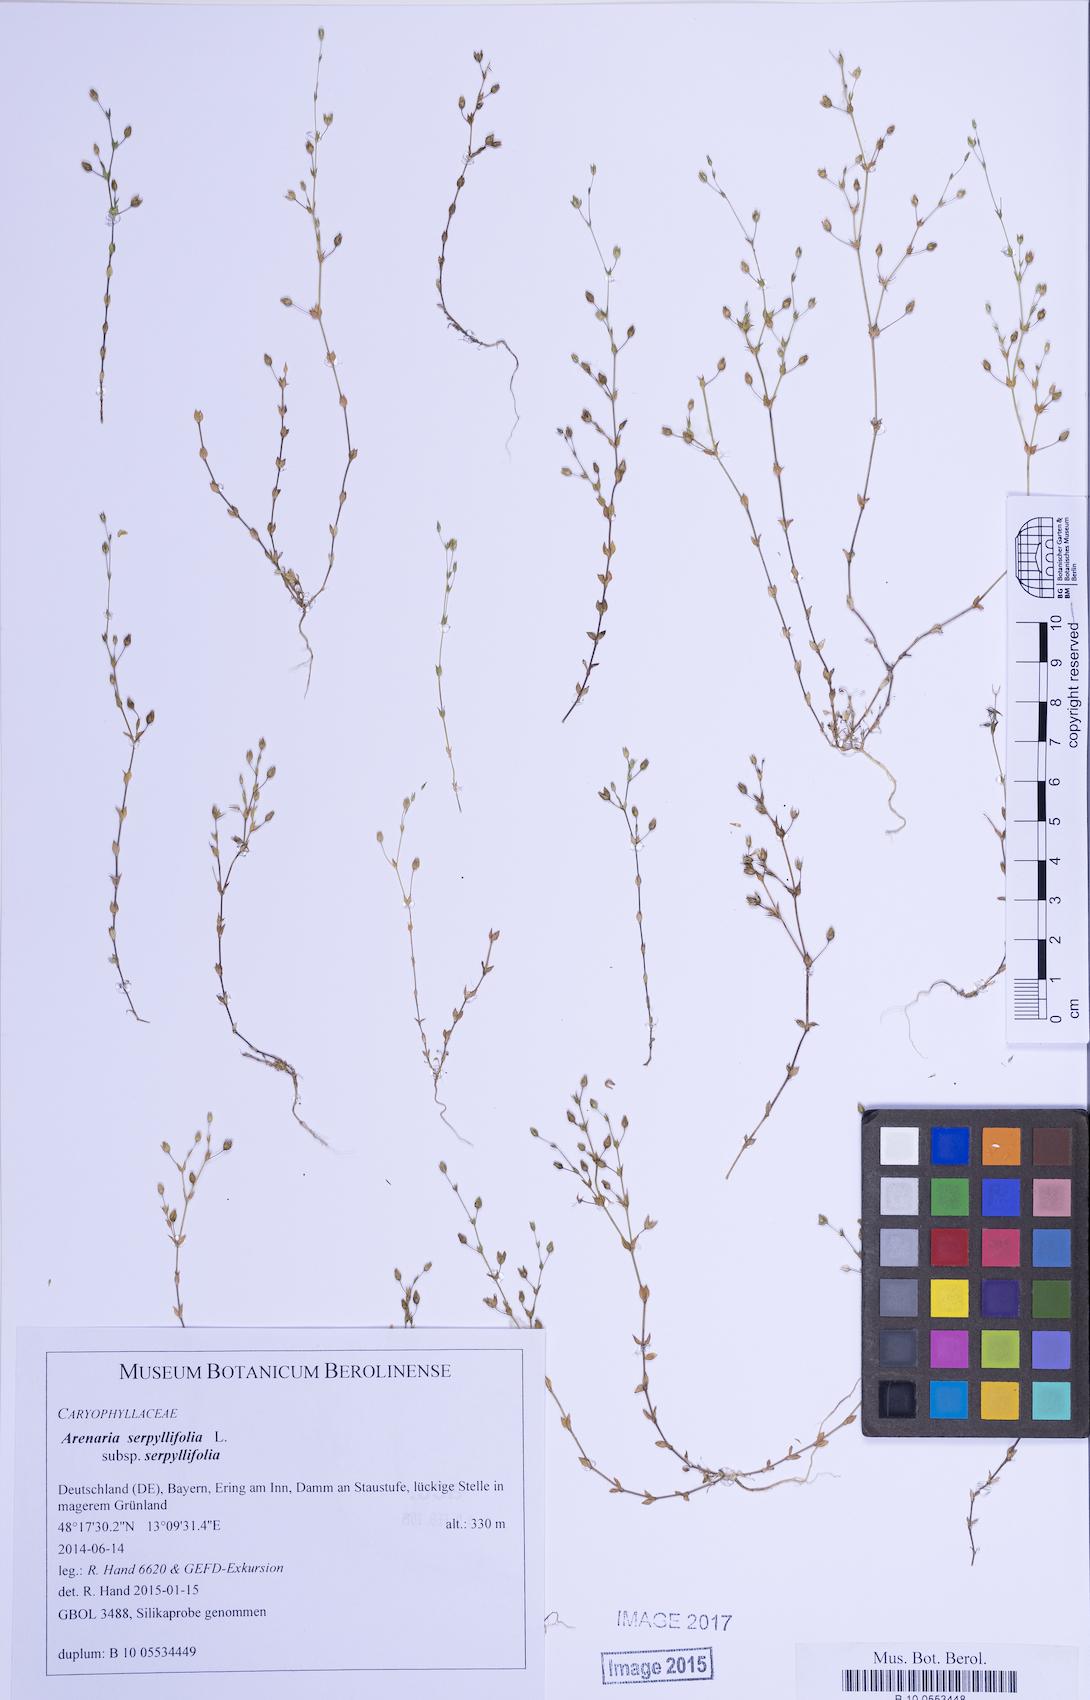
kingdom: Plantae
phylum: Tracheophyta
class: Magnoliopsida
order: Caryophyllales
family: Caryophyllaceae
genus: Arenaria
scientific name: Arenaria serpyllifolia
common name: Thyme-leaved sandwort
